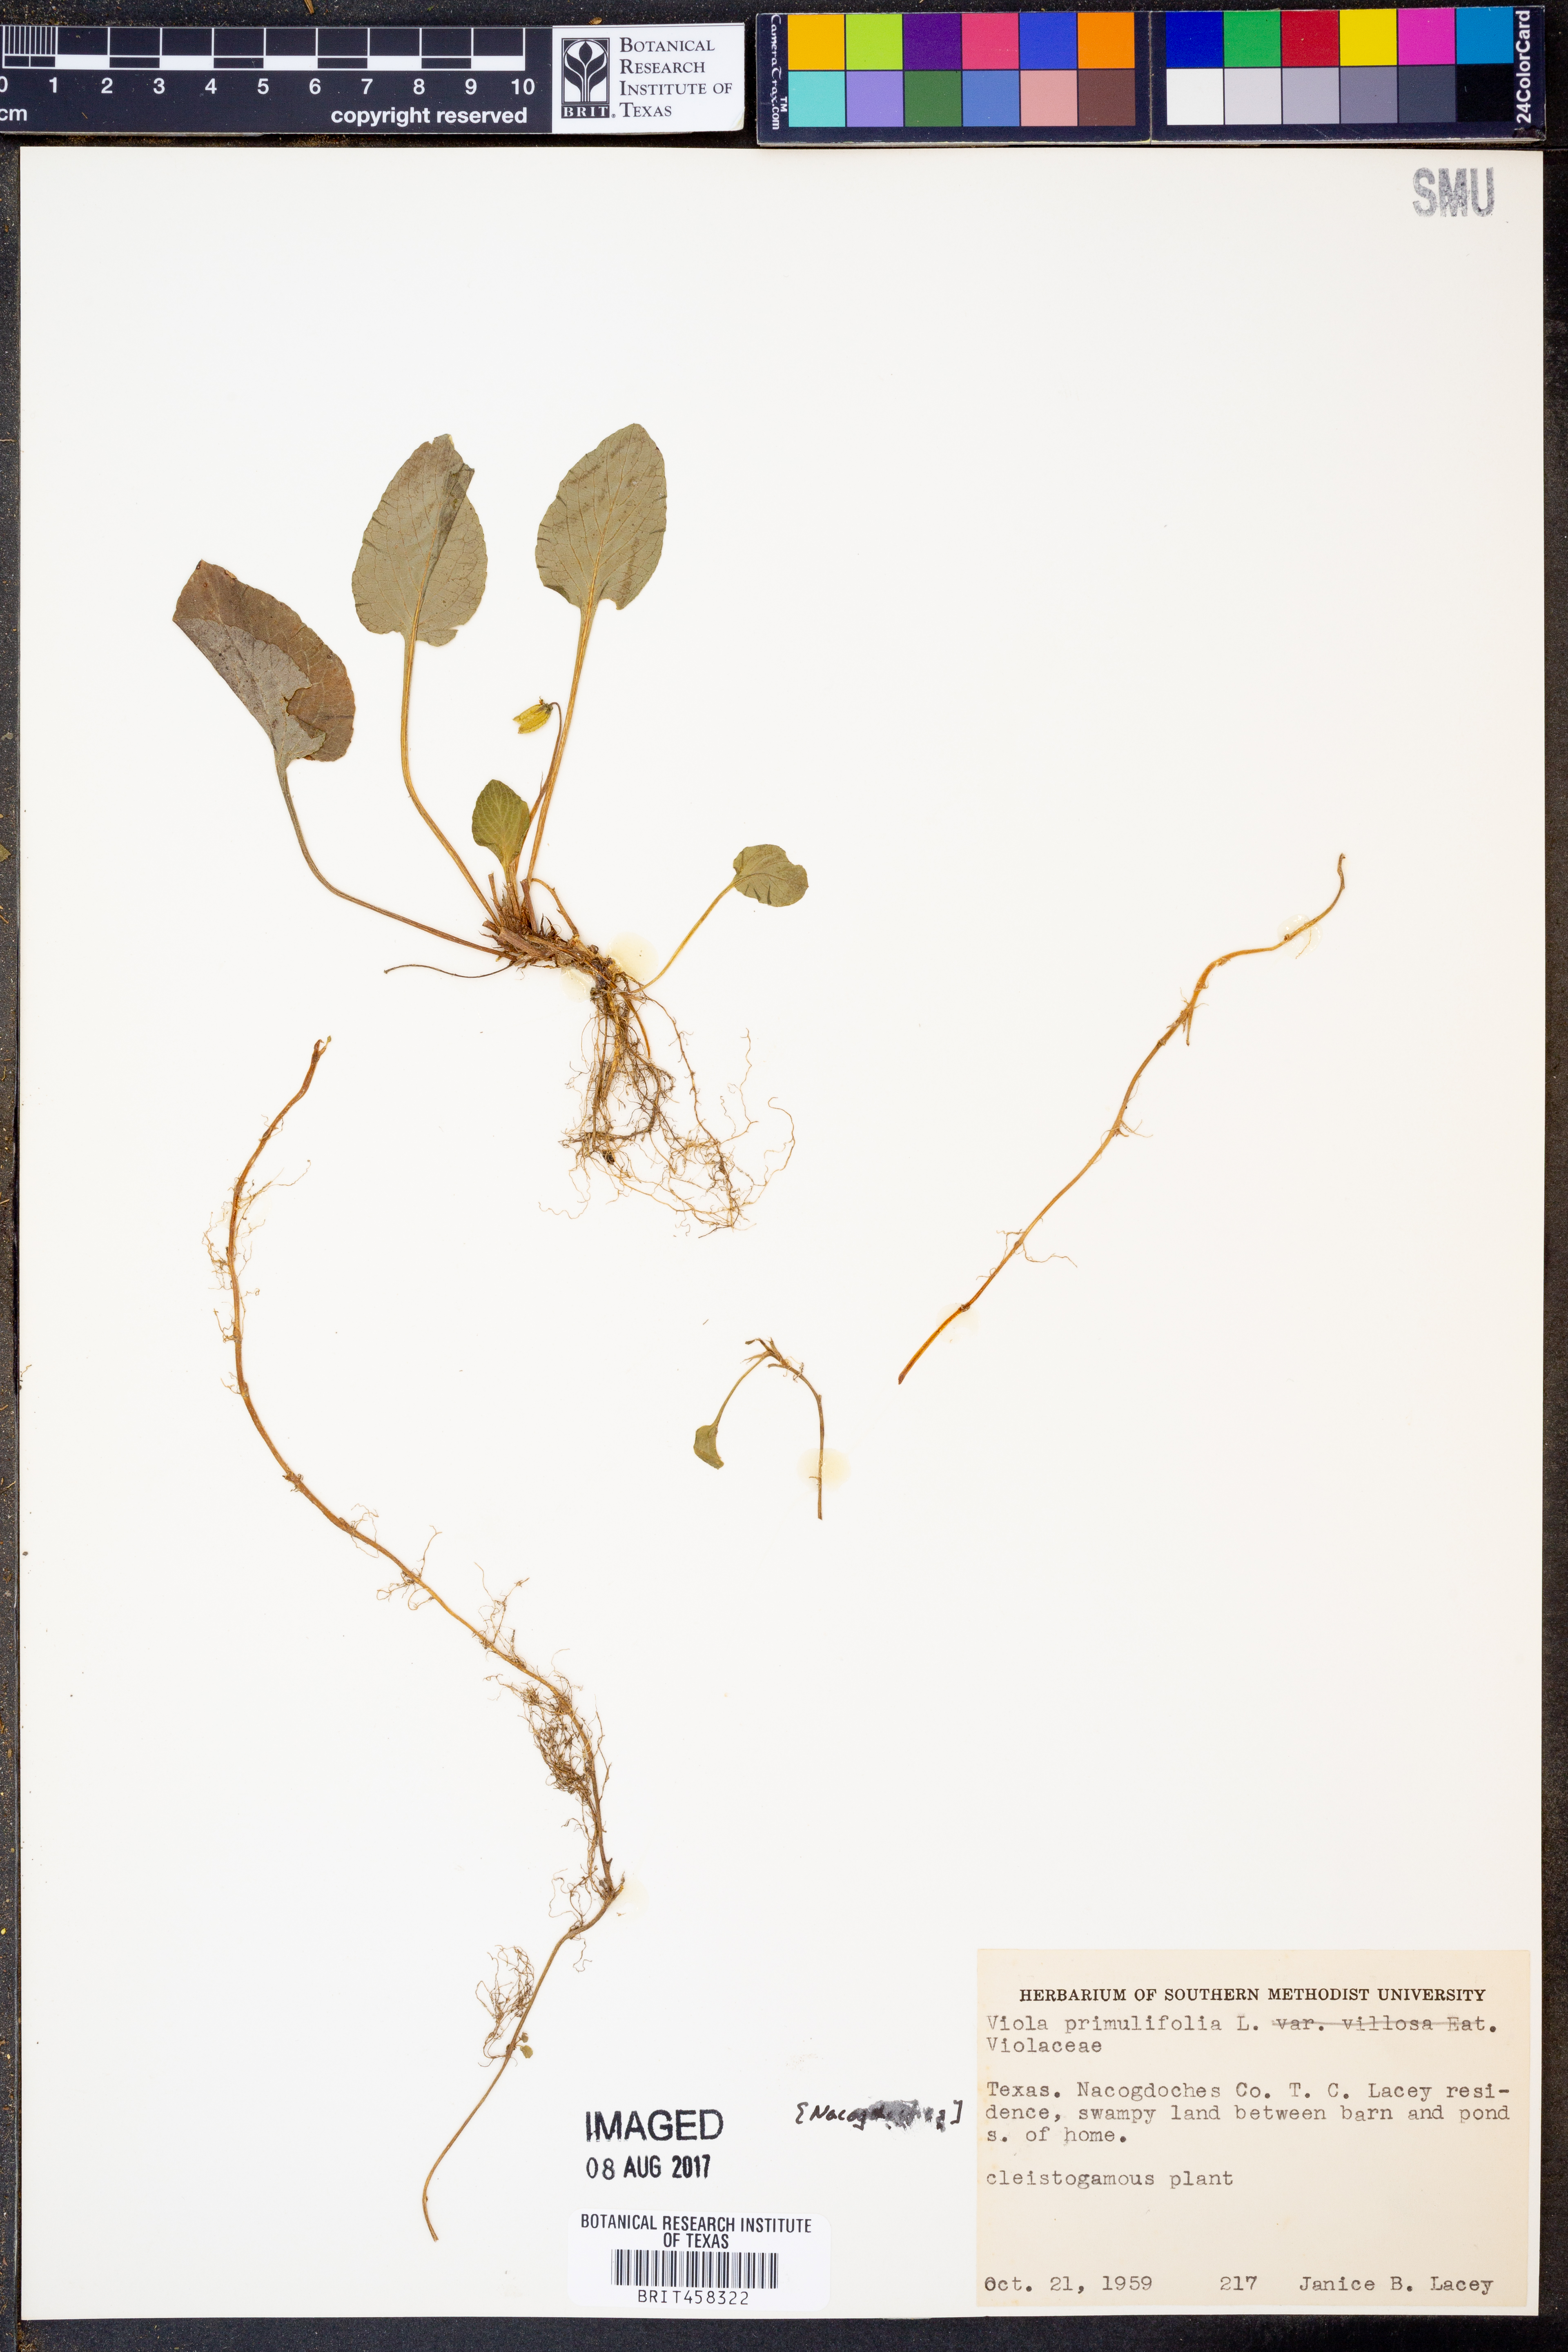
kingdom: Plantae
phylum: Tracheophyta
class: Magnoliopsida
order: Malpighiales
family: Violaceae
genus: Viola
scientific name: Viola primulifolia
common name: Primrose-leaf violet
